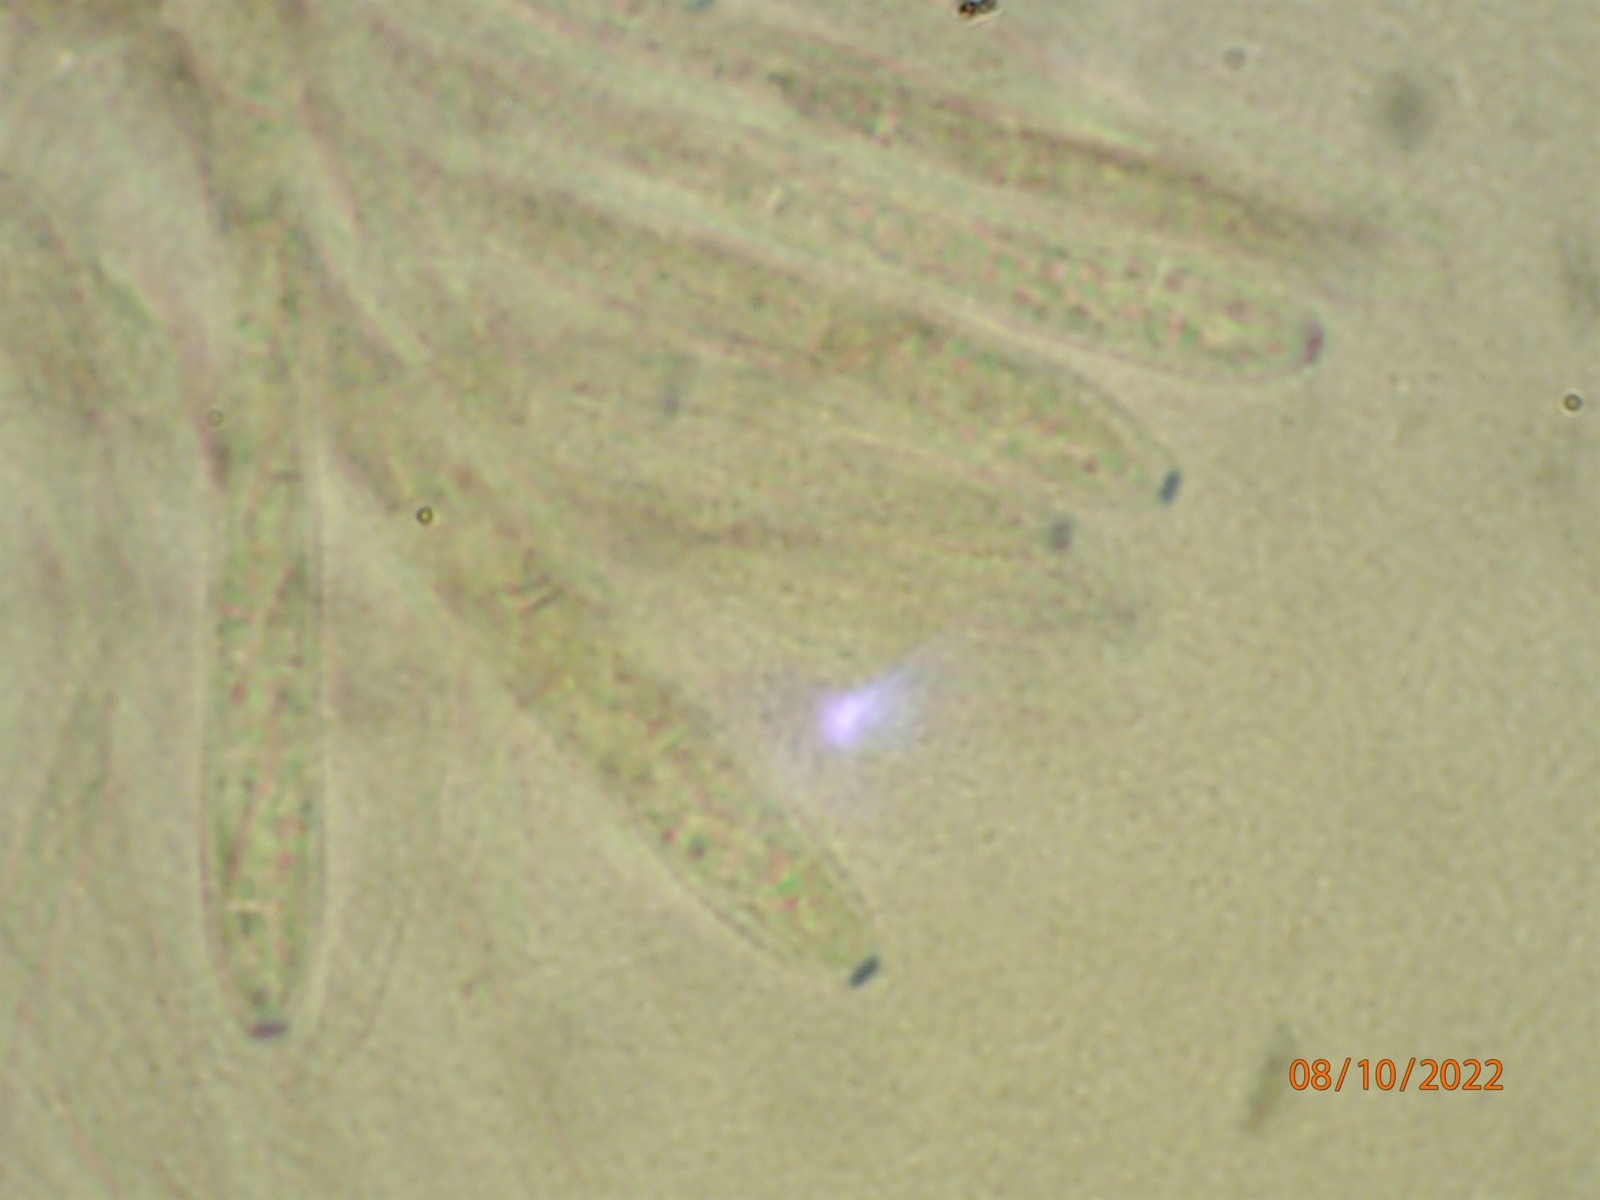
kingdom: Fungi
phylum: Ascomycota
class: Leotiomycetes
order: Helotiales
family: Pezizellaceae
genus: Calycina
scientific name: Calycina herbarum
